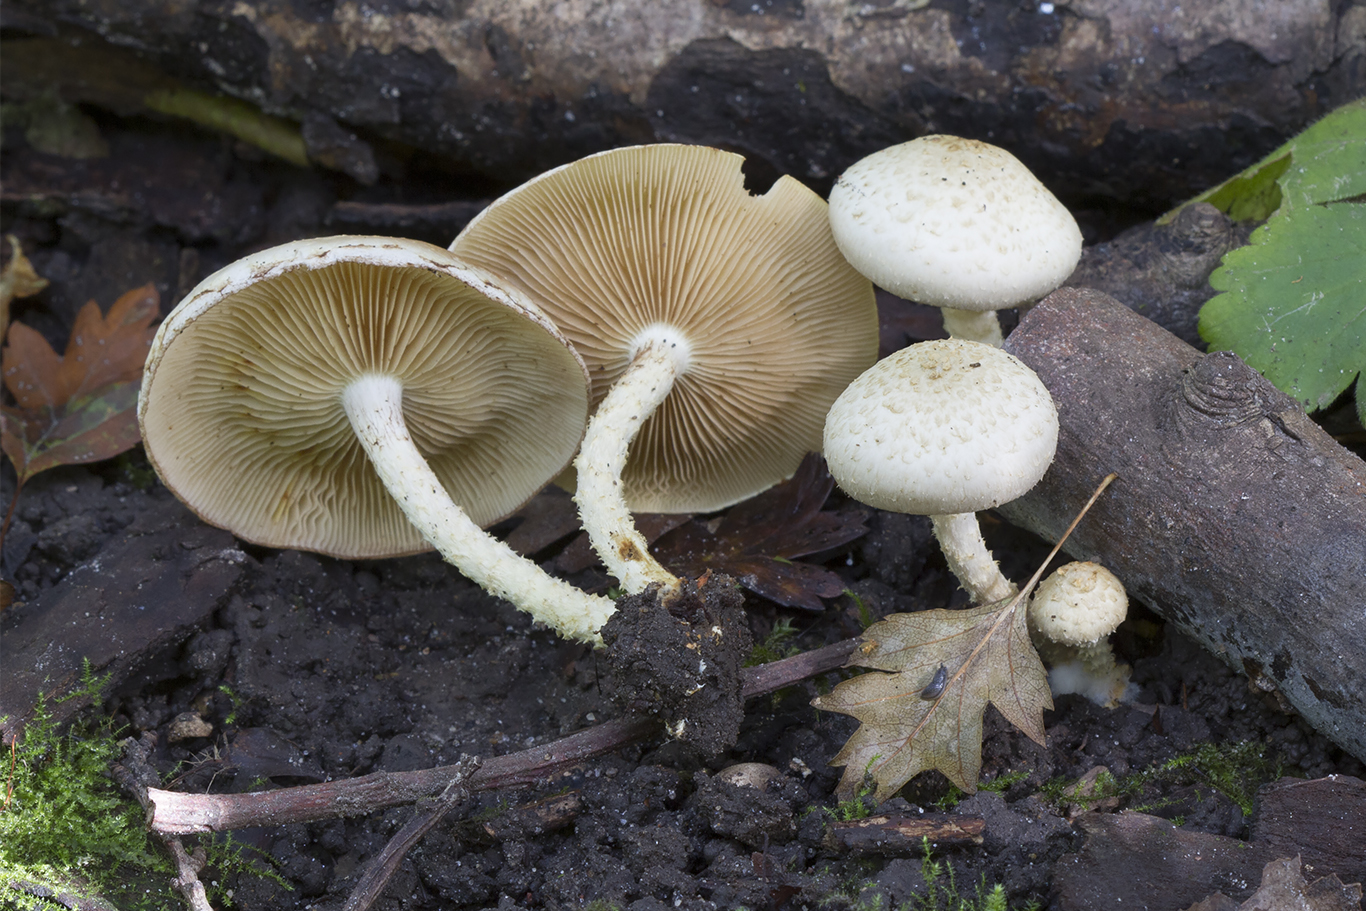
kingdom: Fungi
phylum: Basidiomycota
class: Agaricomycetes
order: Agaricales
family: Strophariaceae
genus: Pholiota
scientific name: Pholiota gummosa
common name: grøngul skælhat
